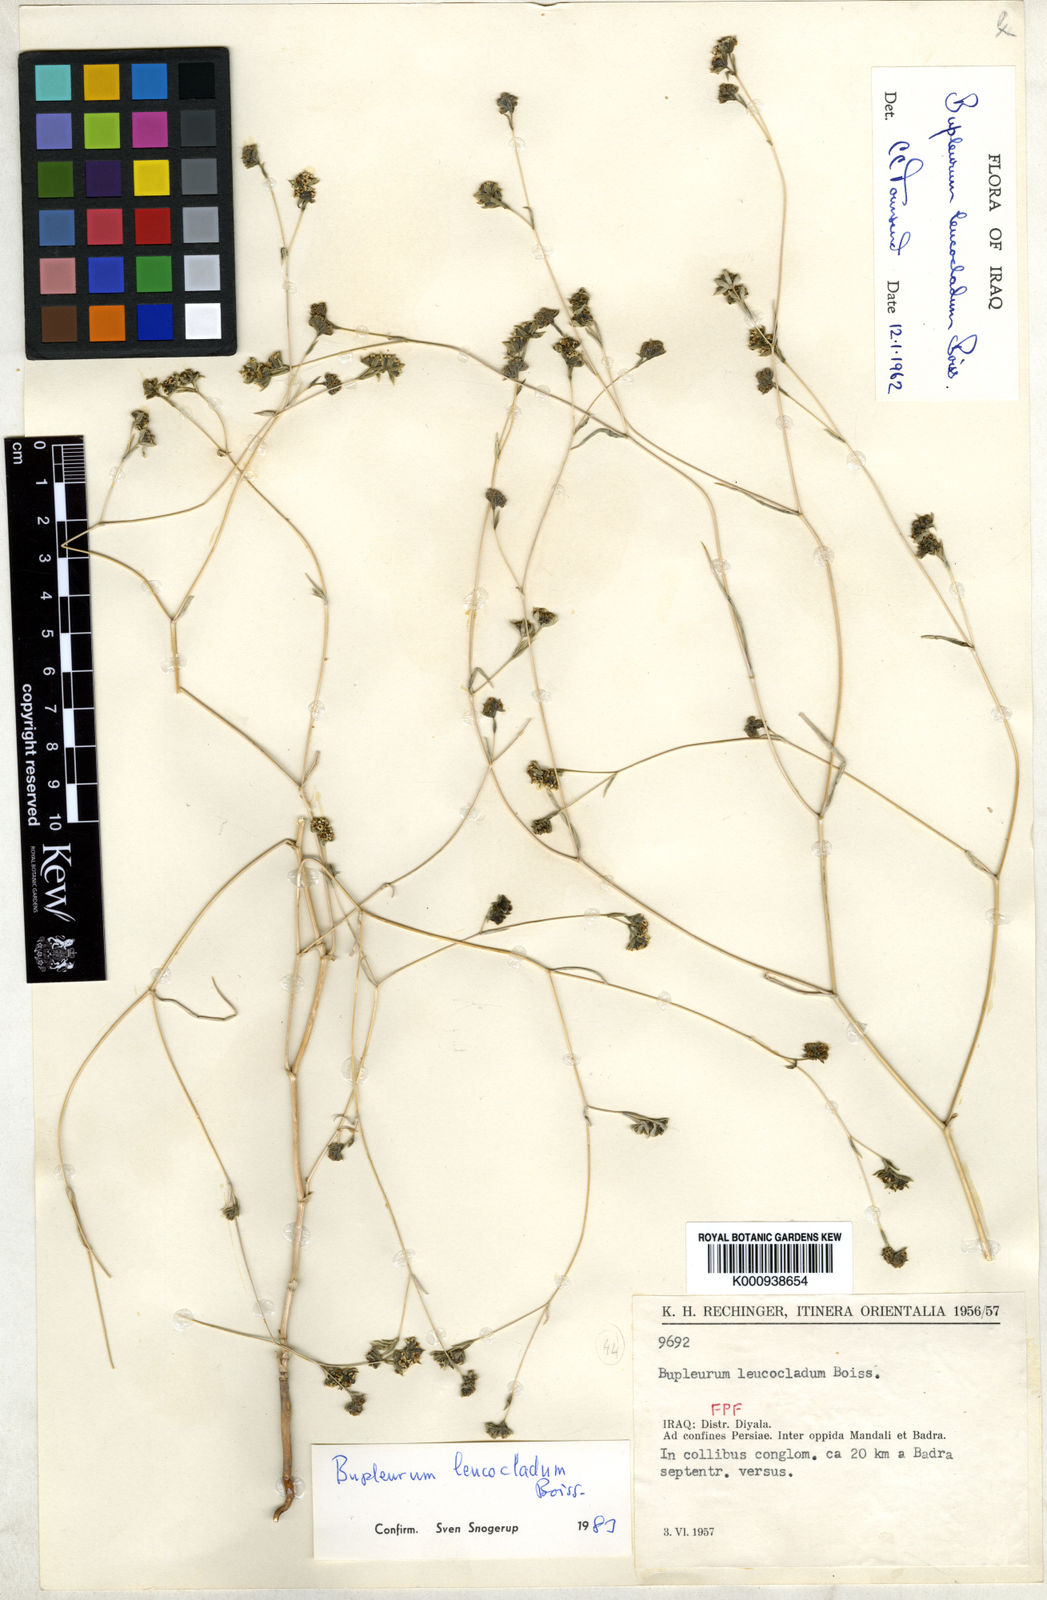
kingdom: Plantae
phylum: Tracheophyta
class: Magnoliopsida
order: Apiales
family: Apiaceae
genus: Bupleurum
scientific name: Bupleurum leucocladum
